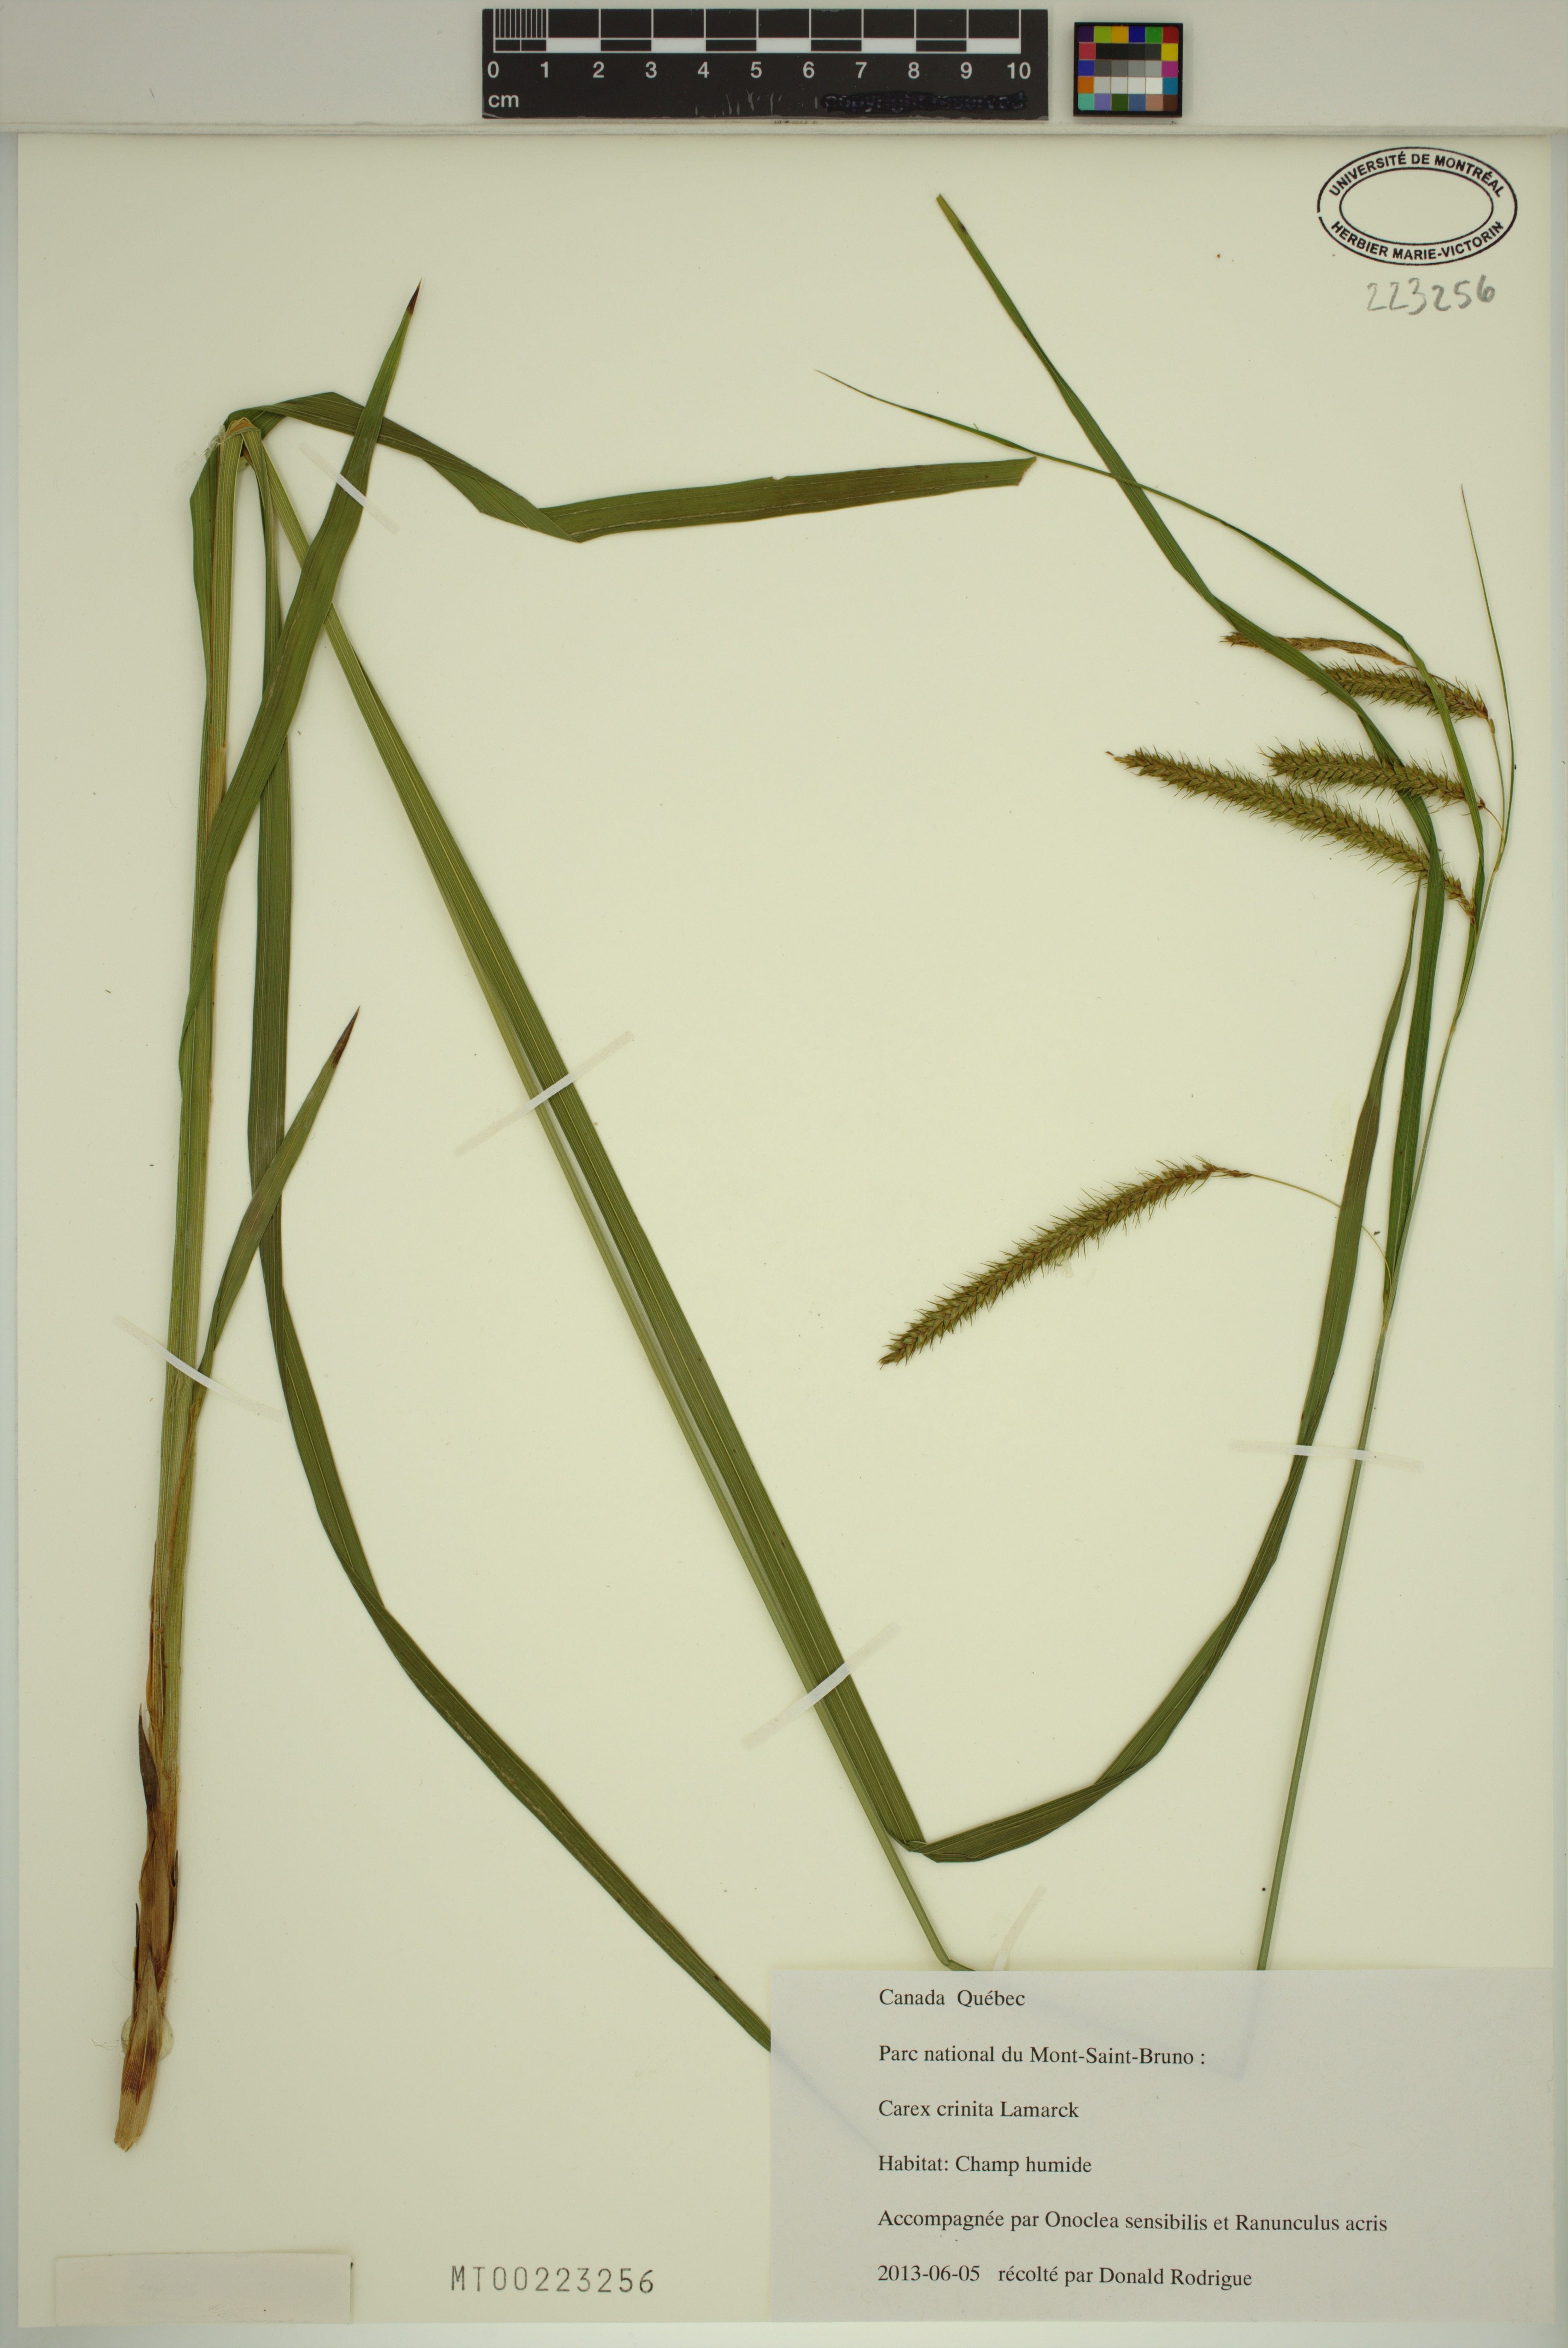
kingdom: Plantae
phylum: Tracheophyta
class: Liliopsida
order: Poales
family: Cyperaceae
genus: Carex
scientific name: Carex crinita
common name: Fringed sedge
